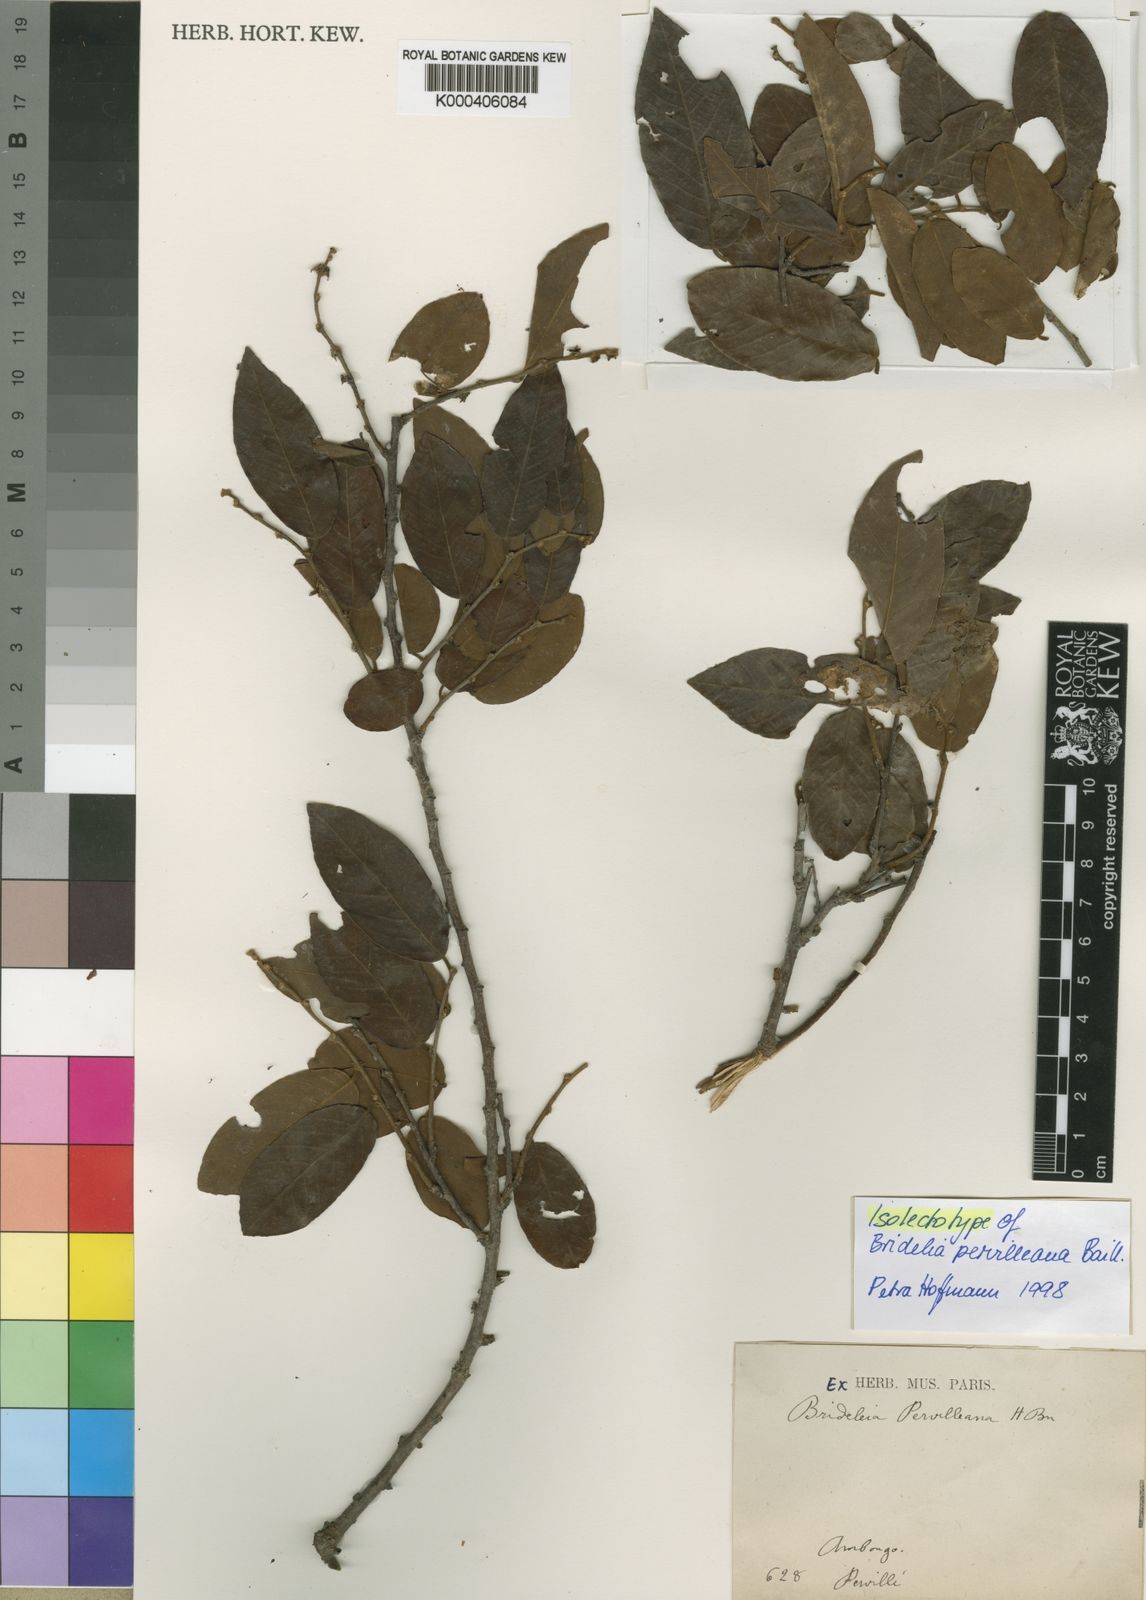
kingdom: Plantae
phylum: Tracheophyta
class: Magnoliopsida
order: Malpighiales
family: Phyllanthaceae
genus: Bridelia
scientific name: Bridelia pervilleana
